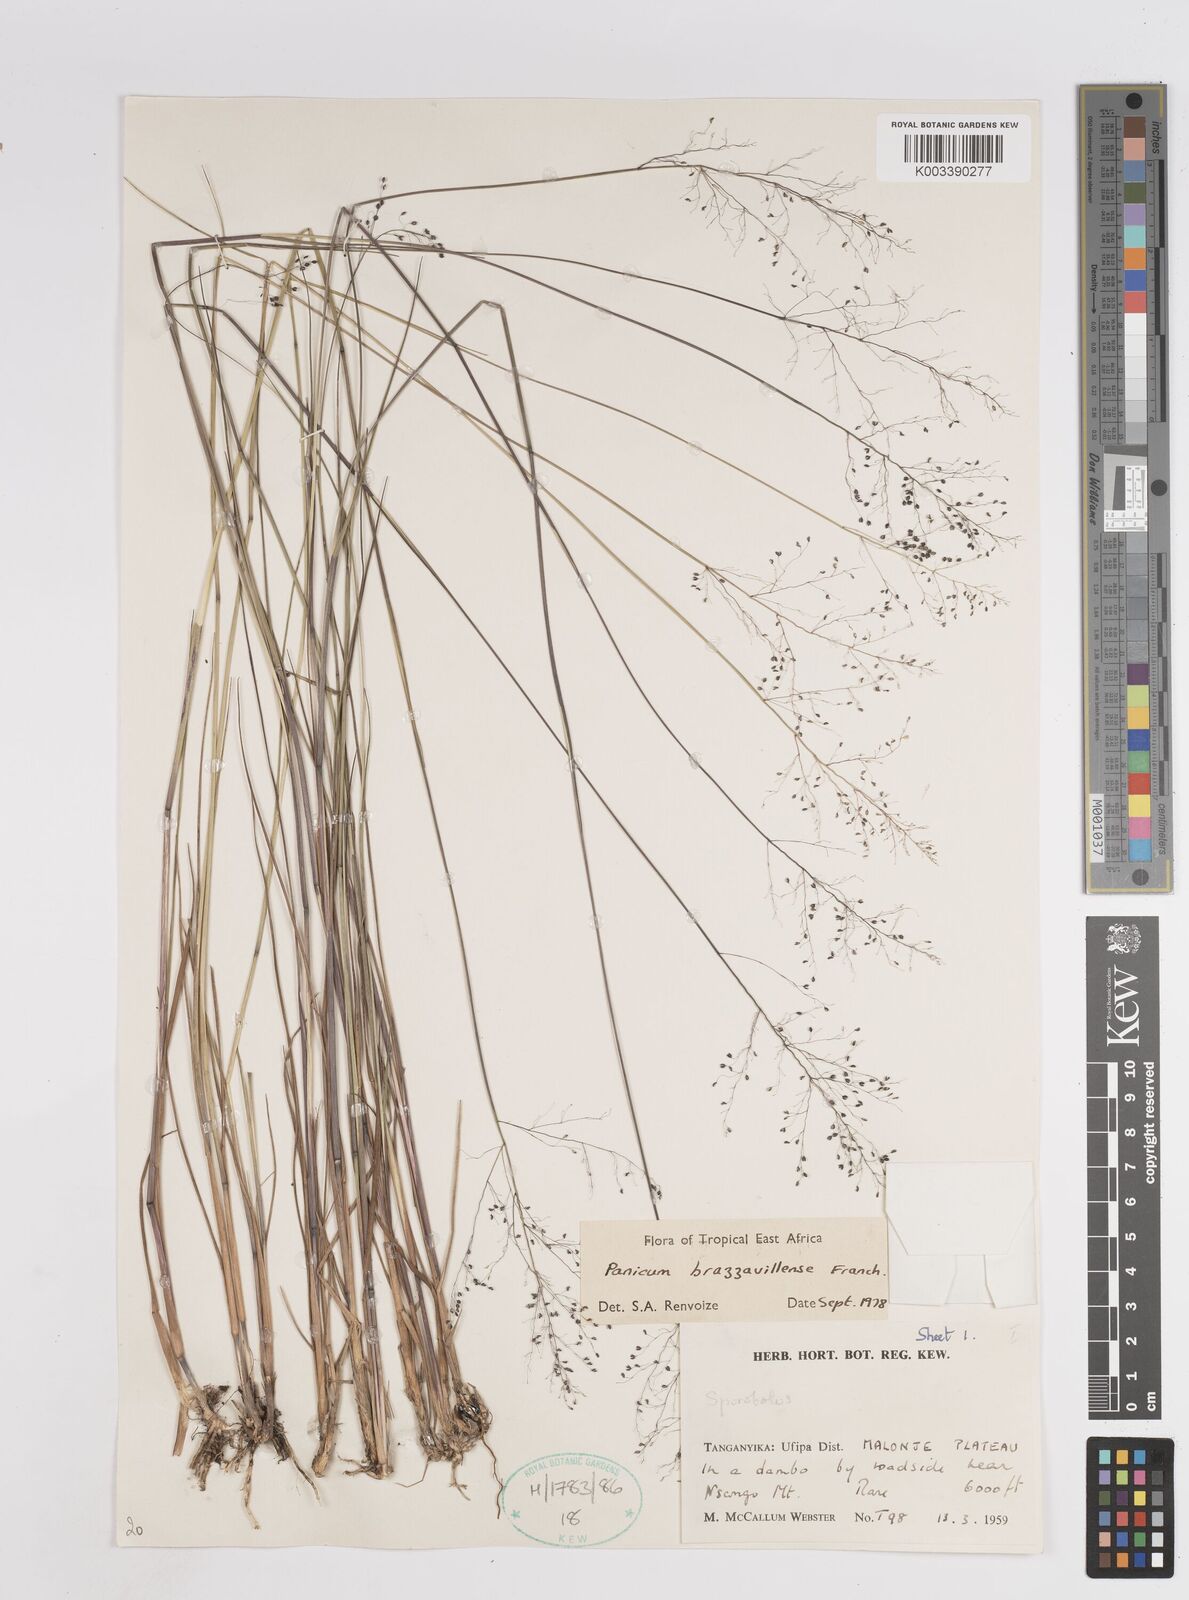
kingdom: Plantae
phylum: Tracheophyta
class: Liliopsida
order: Poales
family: Poaceae
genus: Trichanthecium
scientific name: Trichanthecium brazzavillense
